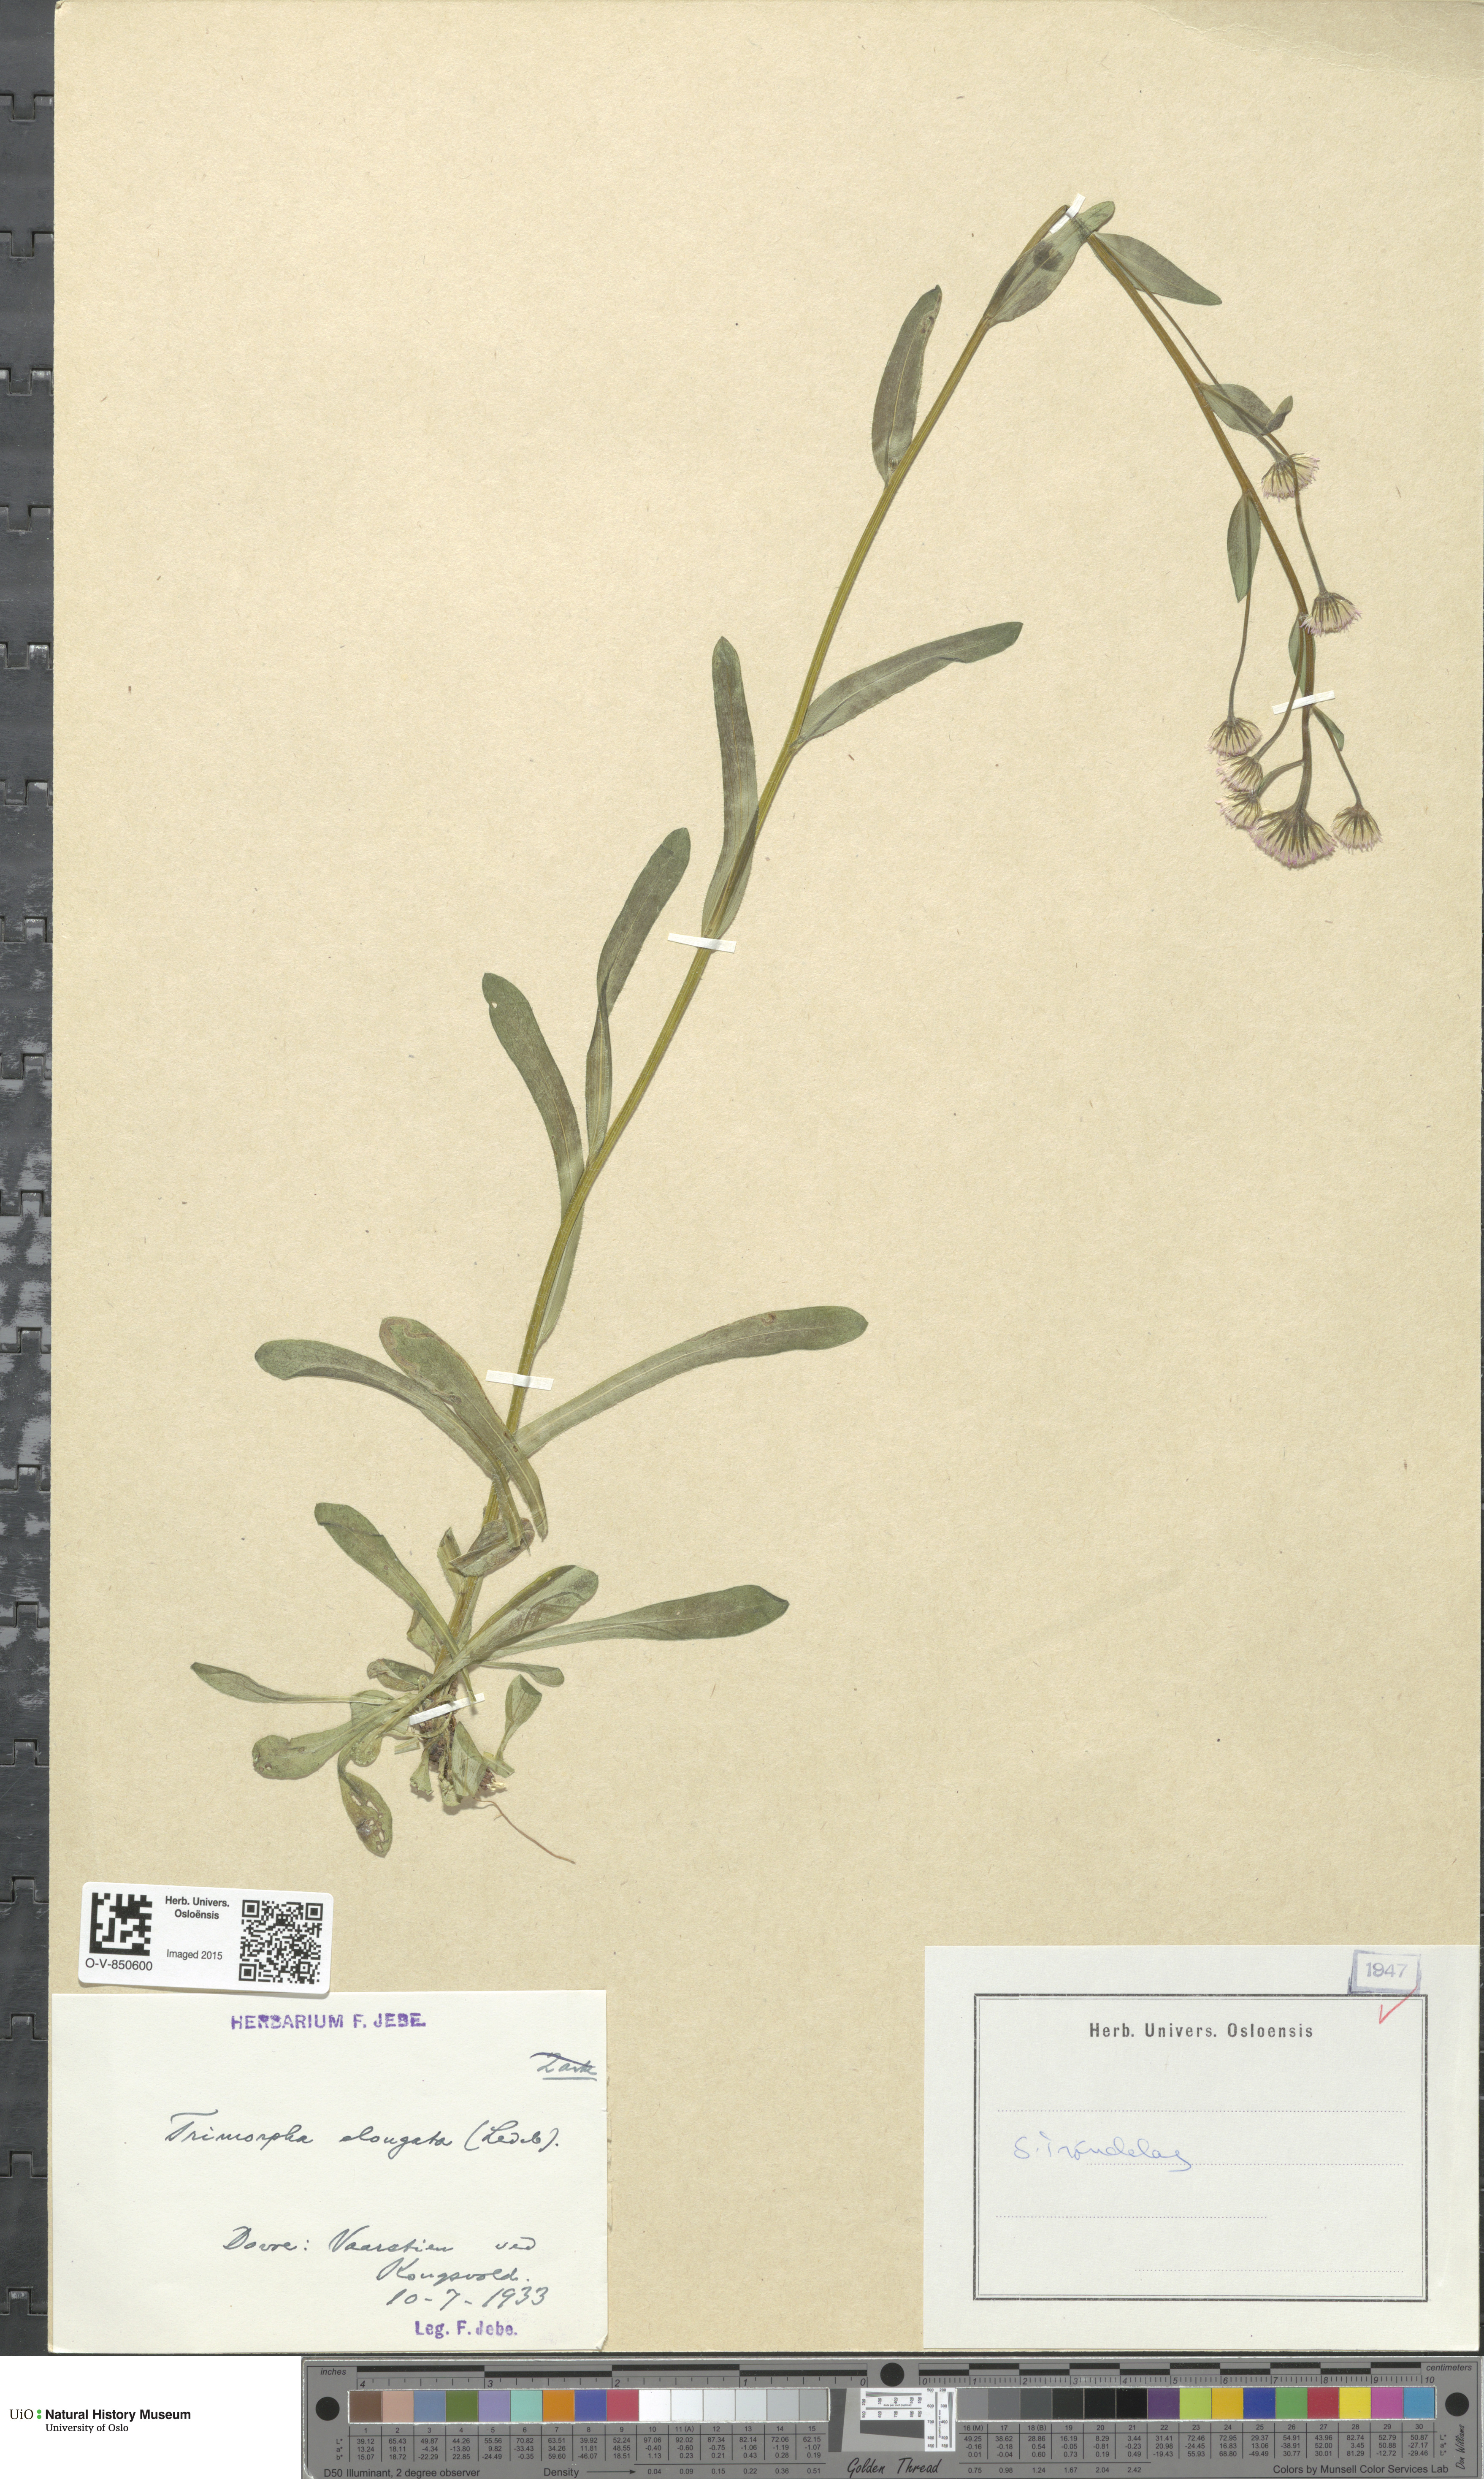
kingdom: Plantae
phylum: Tracheophyta
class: Magnoliopsida
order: Asterales
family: Asteraceae
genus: Erigeron
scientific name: Erigeron politus
